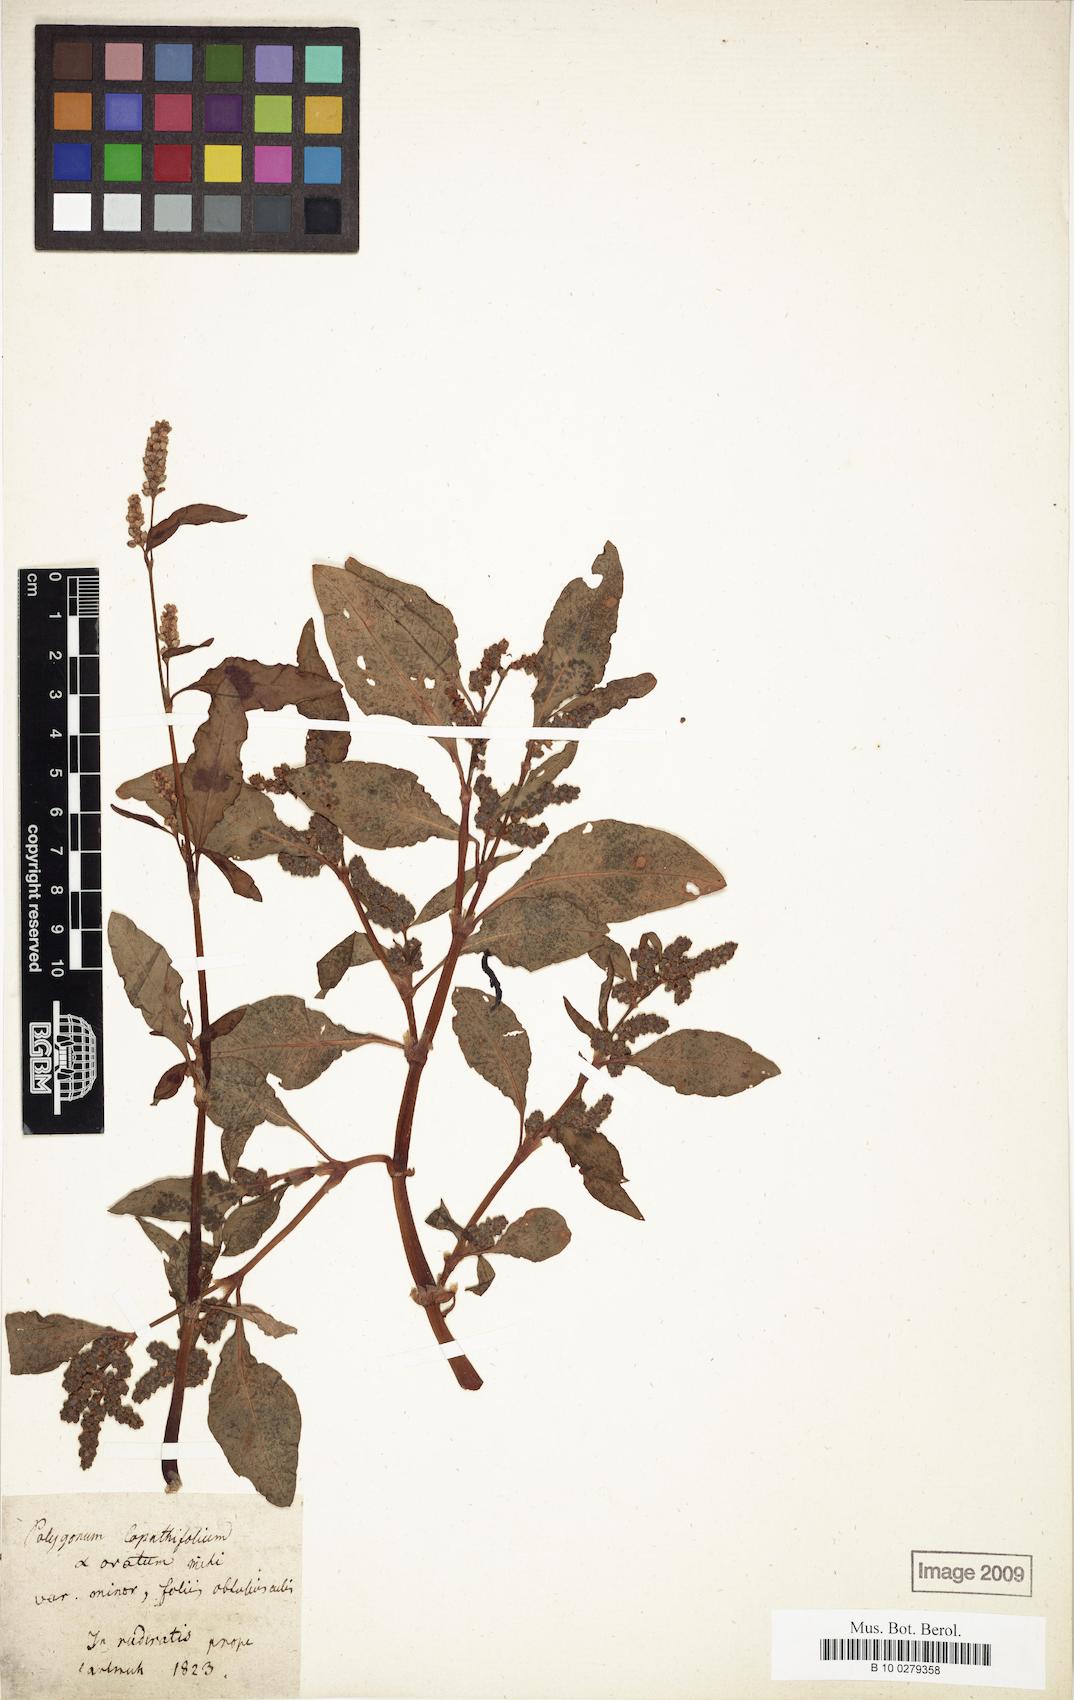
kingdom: Plantae
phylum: Tracheophyta
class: Magnoliopsida
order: Caryophyllales
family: Polygonaceae
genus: Persicaria
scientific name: Persicaria lapathifolia
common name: Curlytop knotweed
